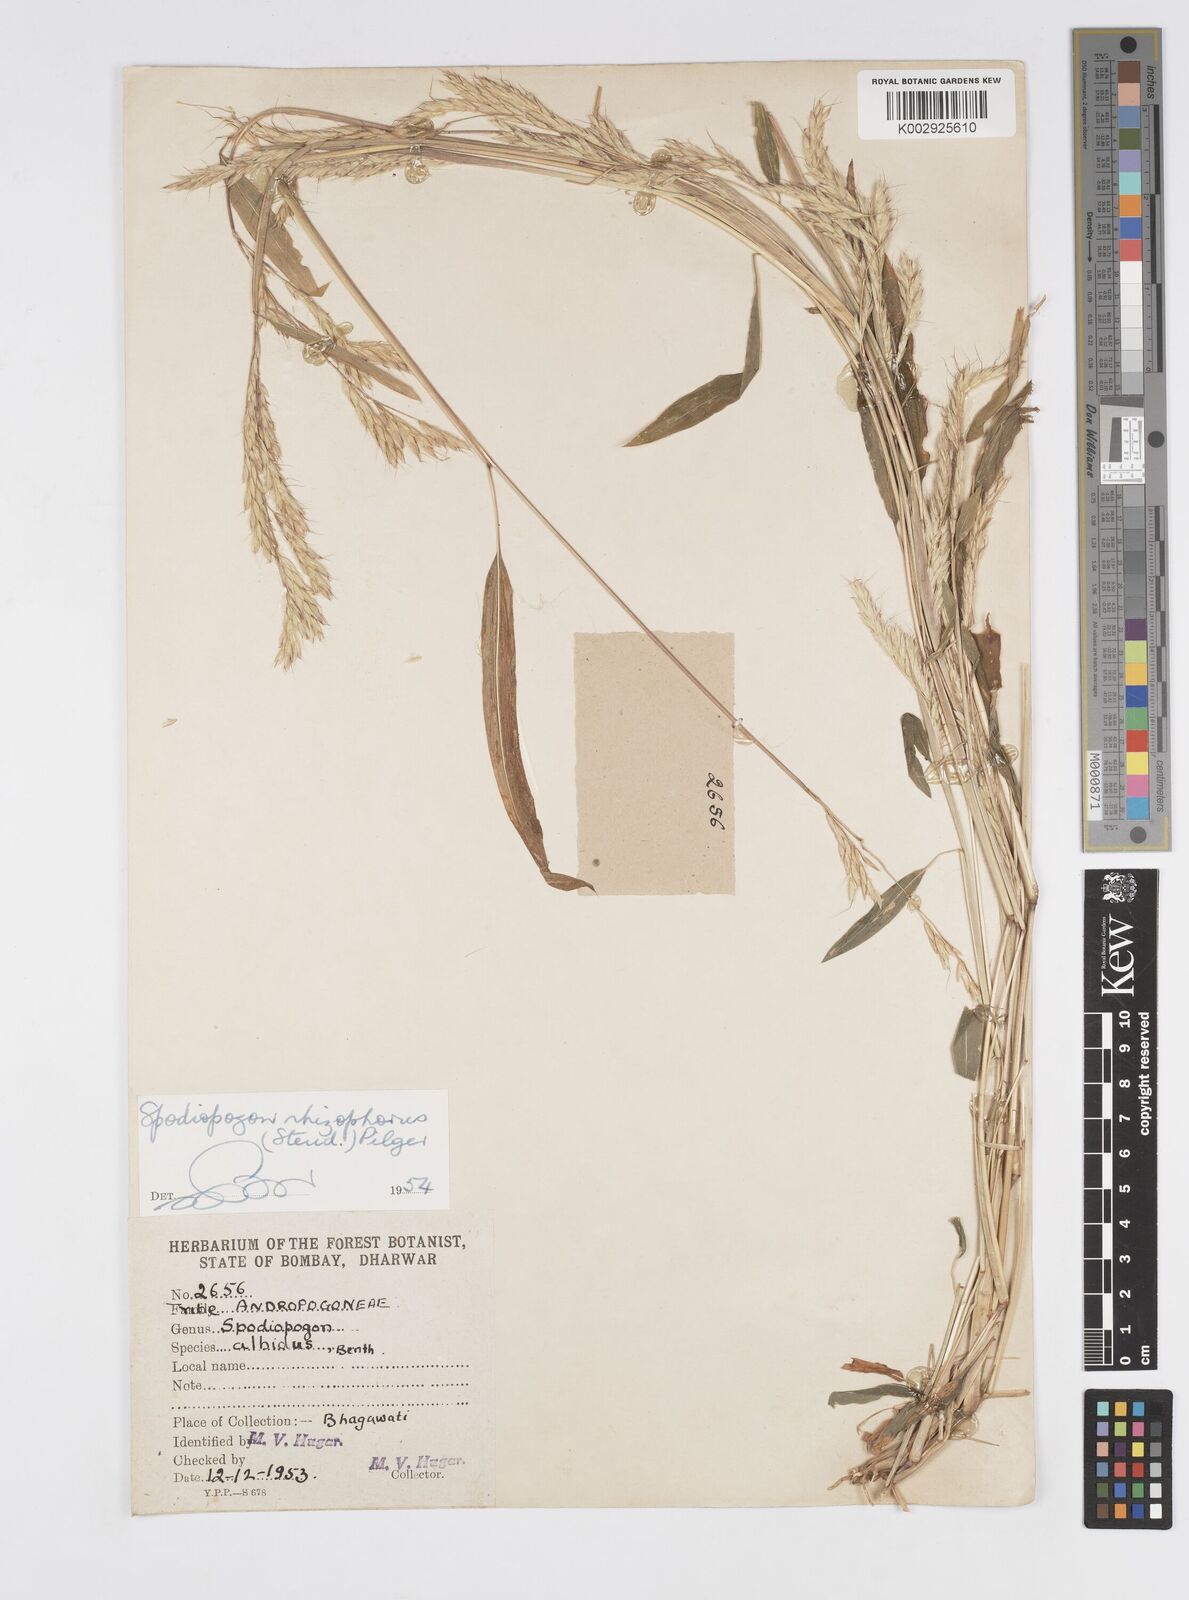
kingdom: Plantae
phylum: Tracheophyta
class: Liliopsida
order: Poales
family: Poaceae
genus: Spodiopogon
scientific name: Spodiopogon rhizophorus
